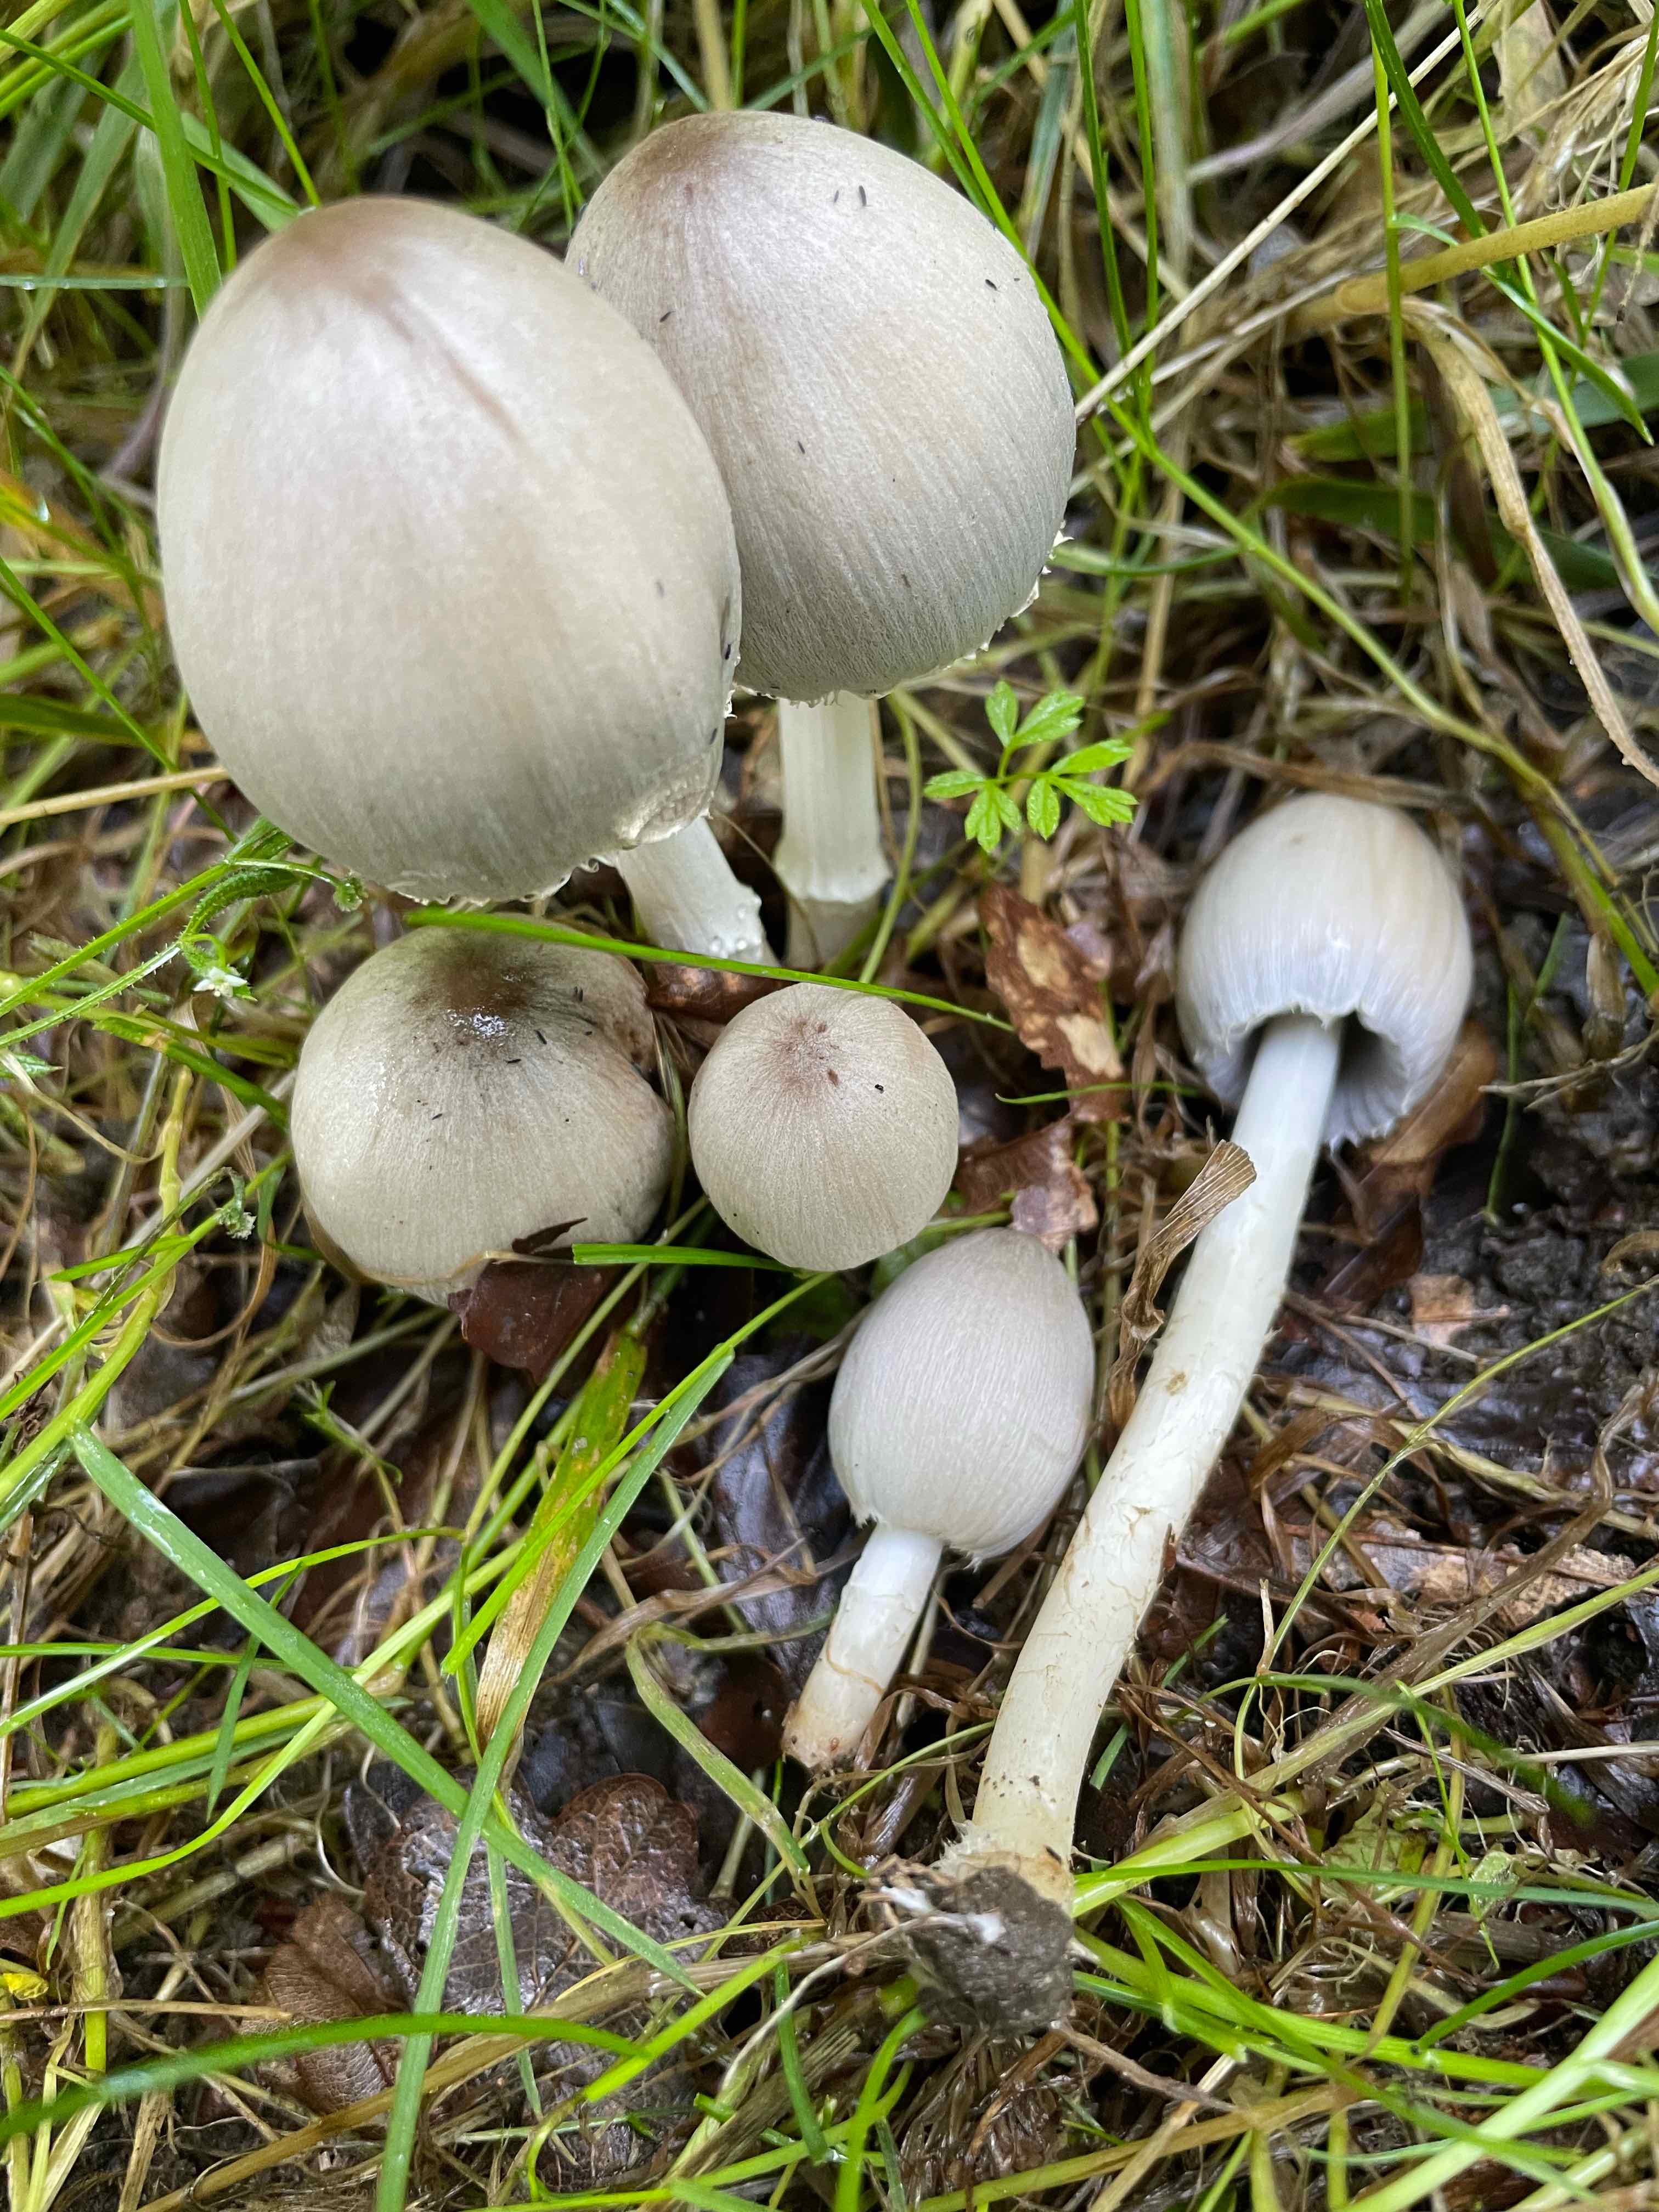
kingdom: Fungi
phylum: Basidiomycota
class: Agaricomycetes
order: Agaricales
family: Psathyrellaceae
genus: Coprinopsis
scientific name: Coprinopsis atramentaria
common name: almindelig blækhat
